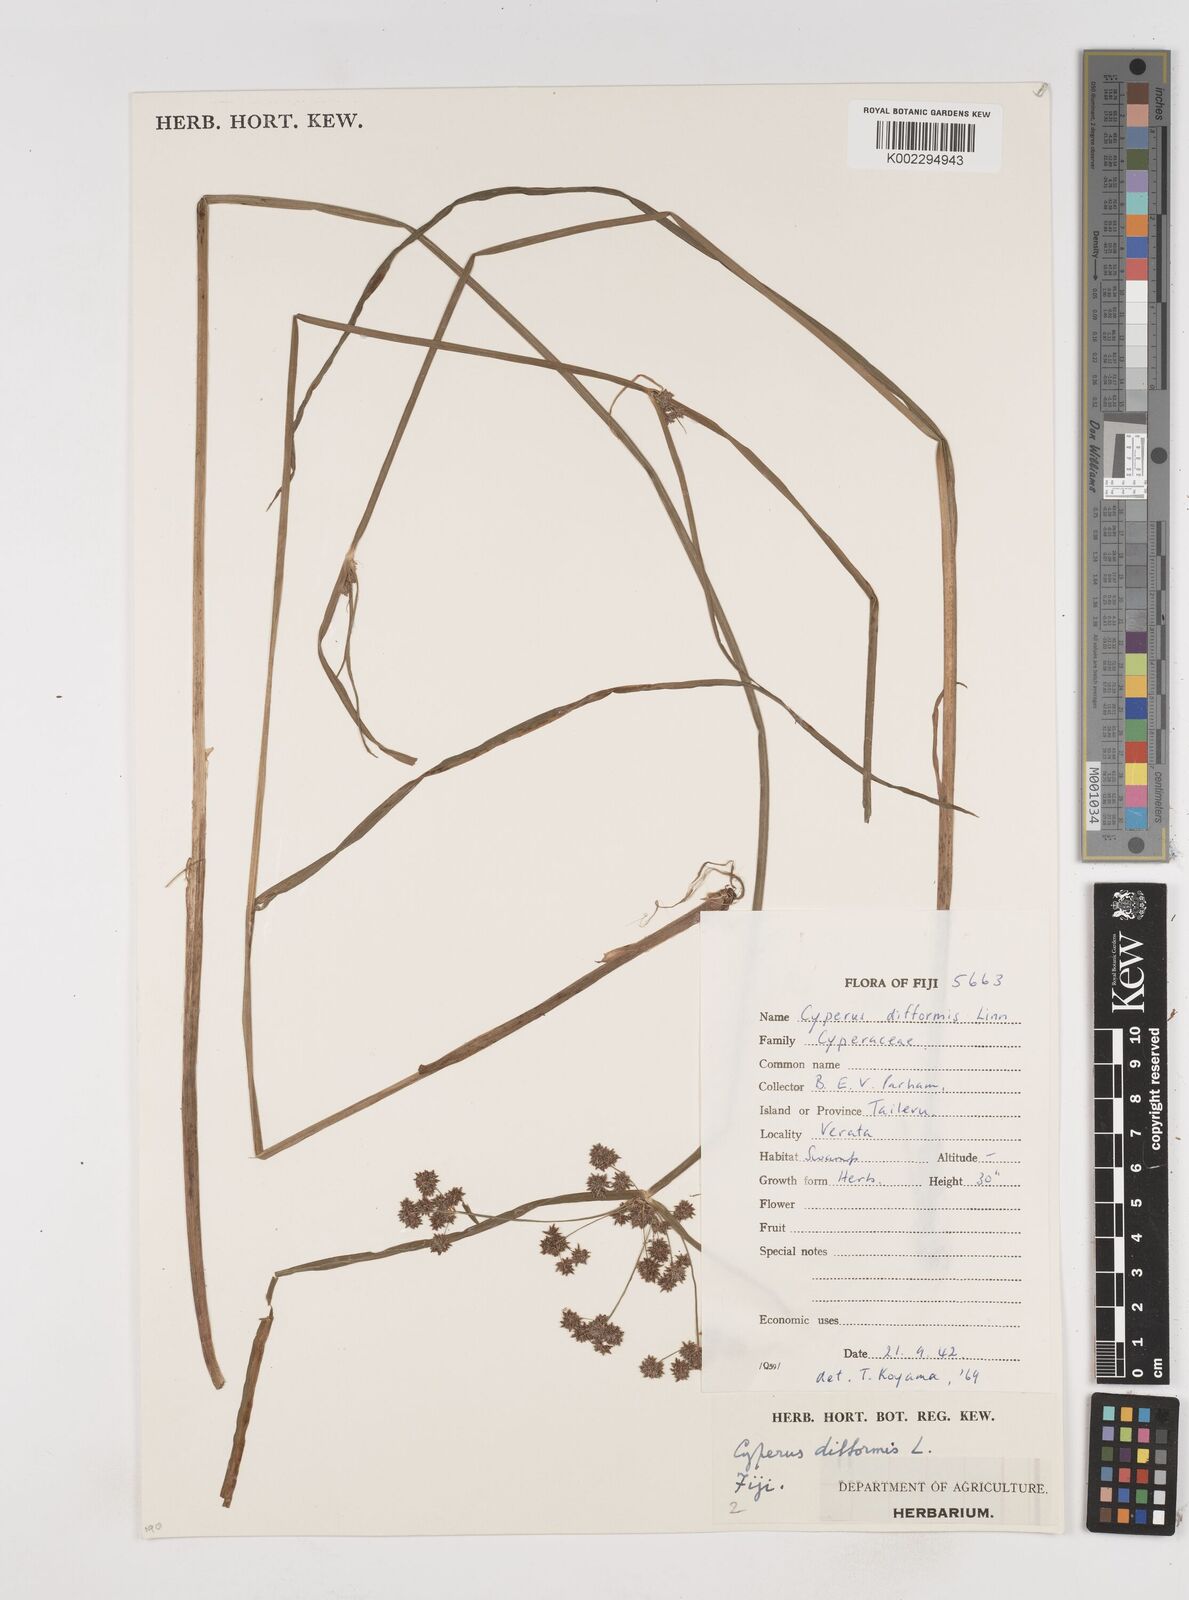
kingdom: Plantae
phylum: Tracheophyta
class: Liliopsida
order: Poales
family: Cyperaceae
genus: Cyperus
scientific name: Cyperus difformis
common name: Variable flatsedge
